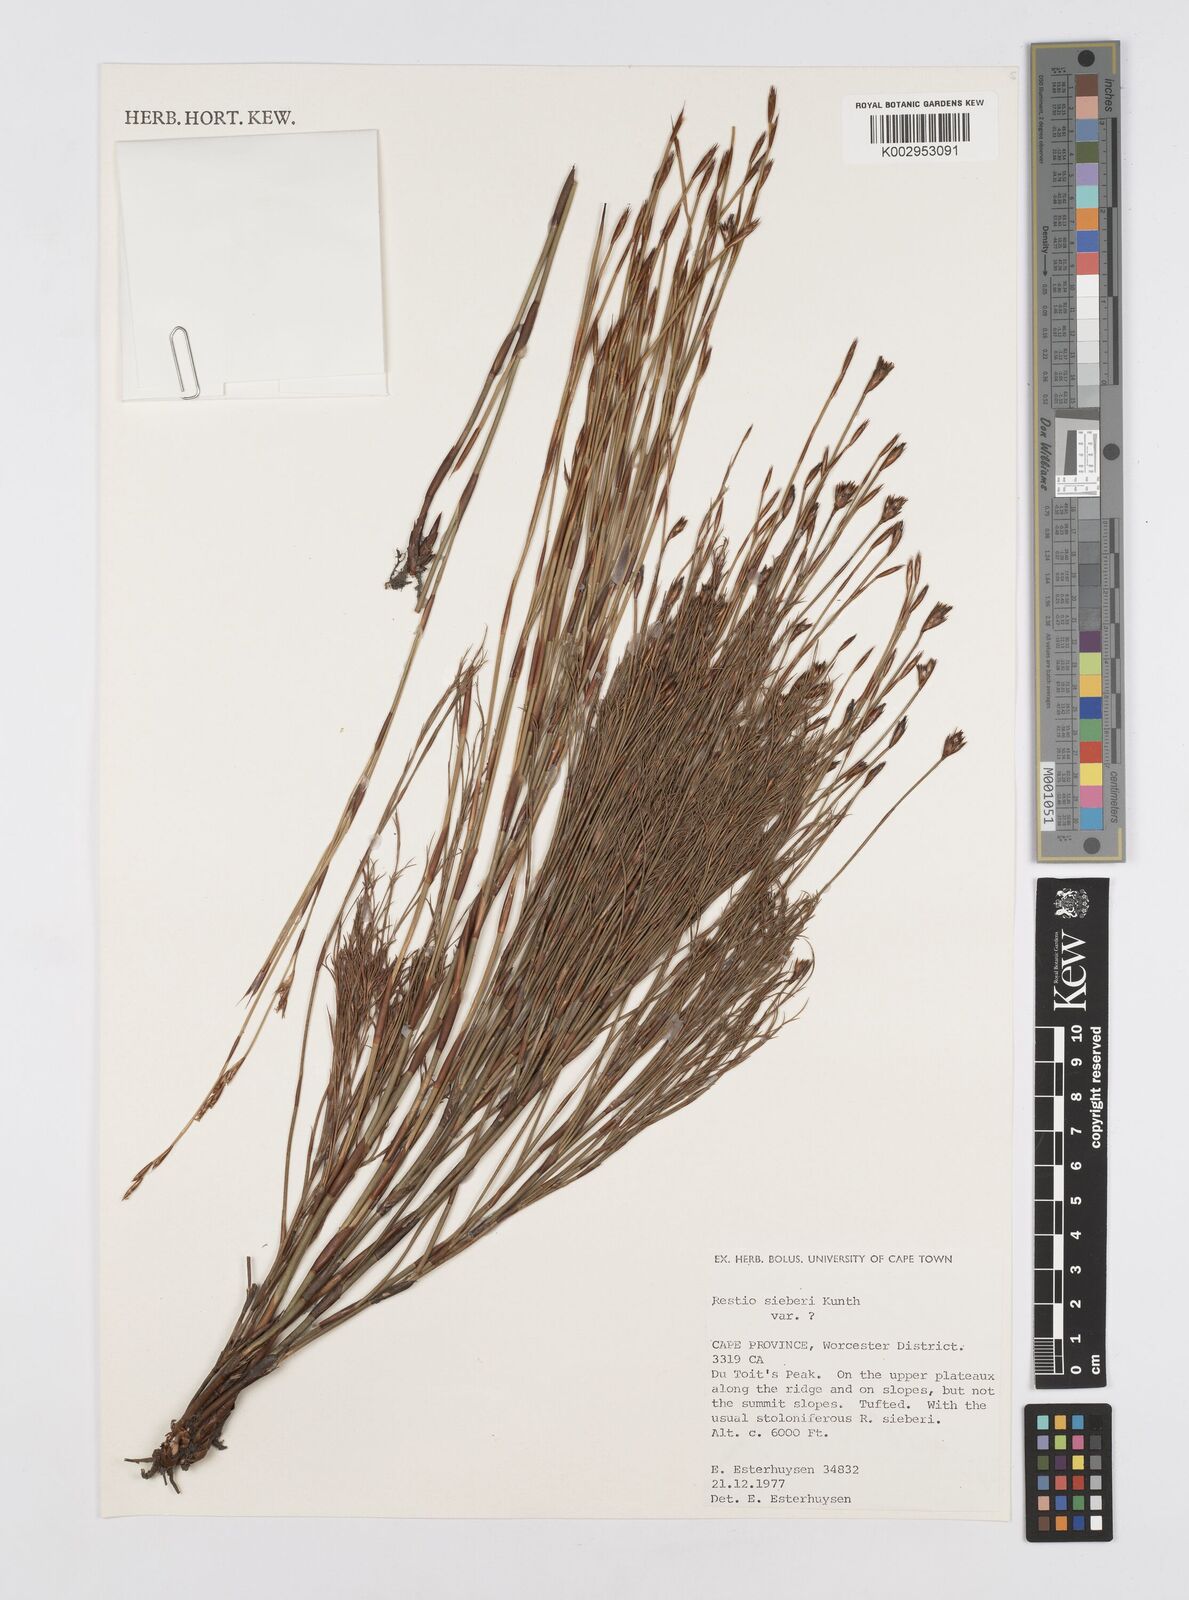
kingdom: Plantae
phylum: Tracheophyta
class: Liliopsida
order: Poales
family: Restionaceae
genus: Restio
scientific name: Restio sieberi
